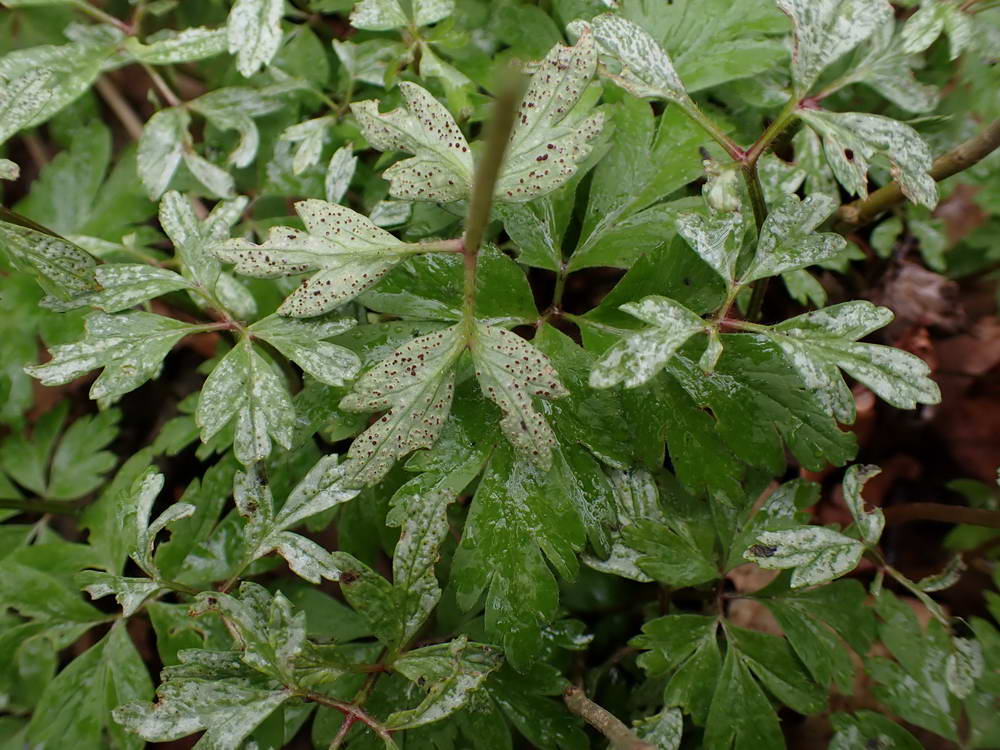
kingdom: Fungi
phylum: Basidiomycota
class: Pucciniomycetes
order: Pucciniales
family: Tranzscheliaceae
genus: Tranzschelia
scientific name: Tranzschelia anemones
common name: anemone-knæksporerust
